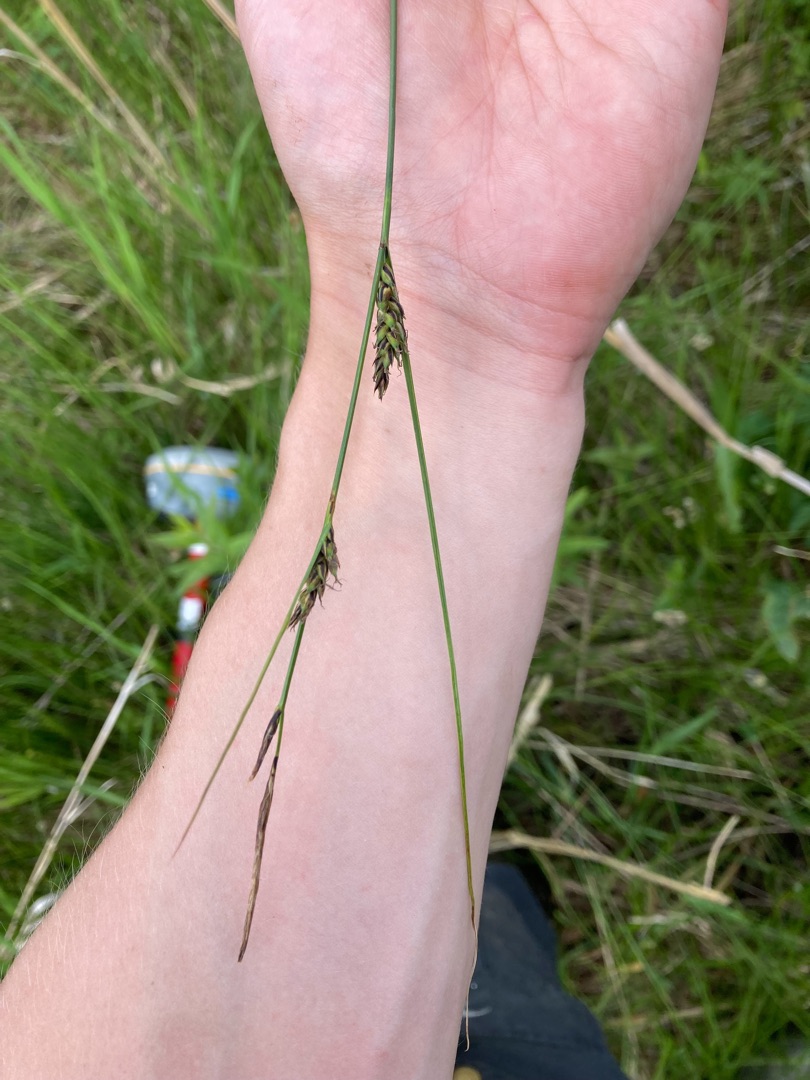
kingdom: Plantae
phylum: Tracheophyta
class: Liliopsida
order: Poales
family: Cyperaceae
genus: Carex
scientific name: Carex lasiocarpa
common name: Tråd-star
